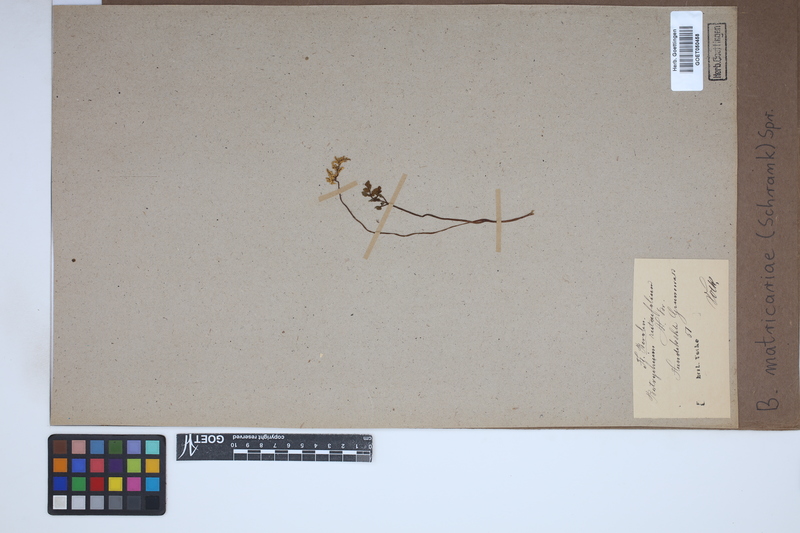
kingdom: Plantae
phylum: Tracheophyta
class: Polypodiopsida
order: Ophioglossales
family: Ophioglossaceae
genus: Sceptridium
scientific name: Sceptridium multifidum
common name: Leathery grape fern
